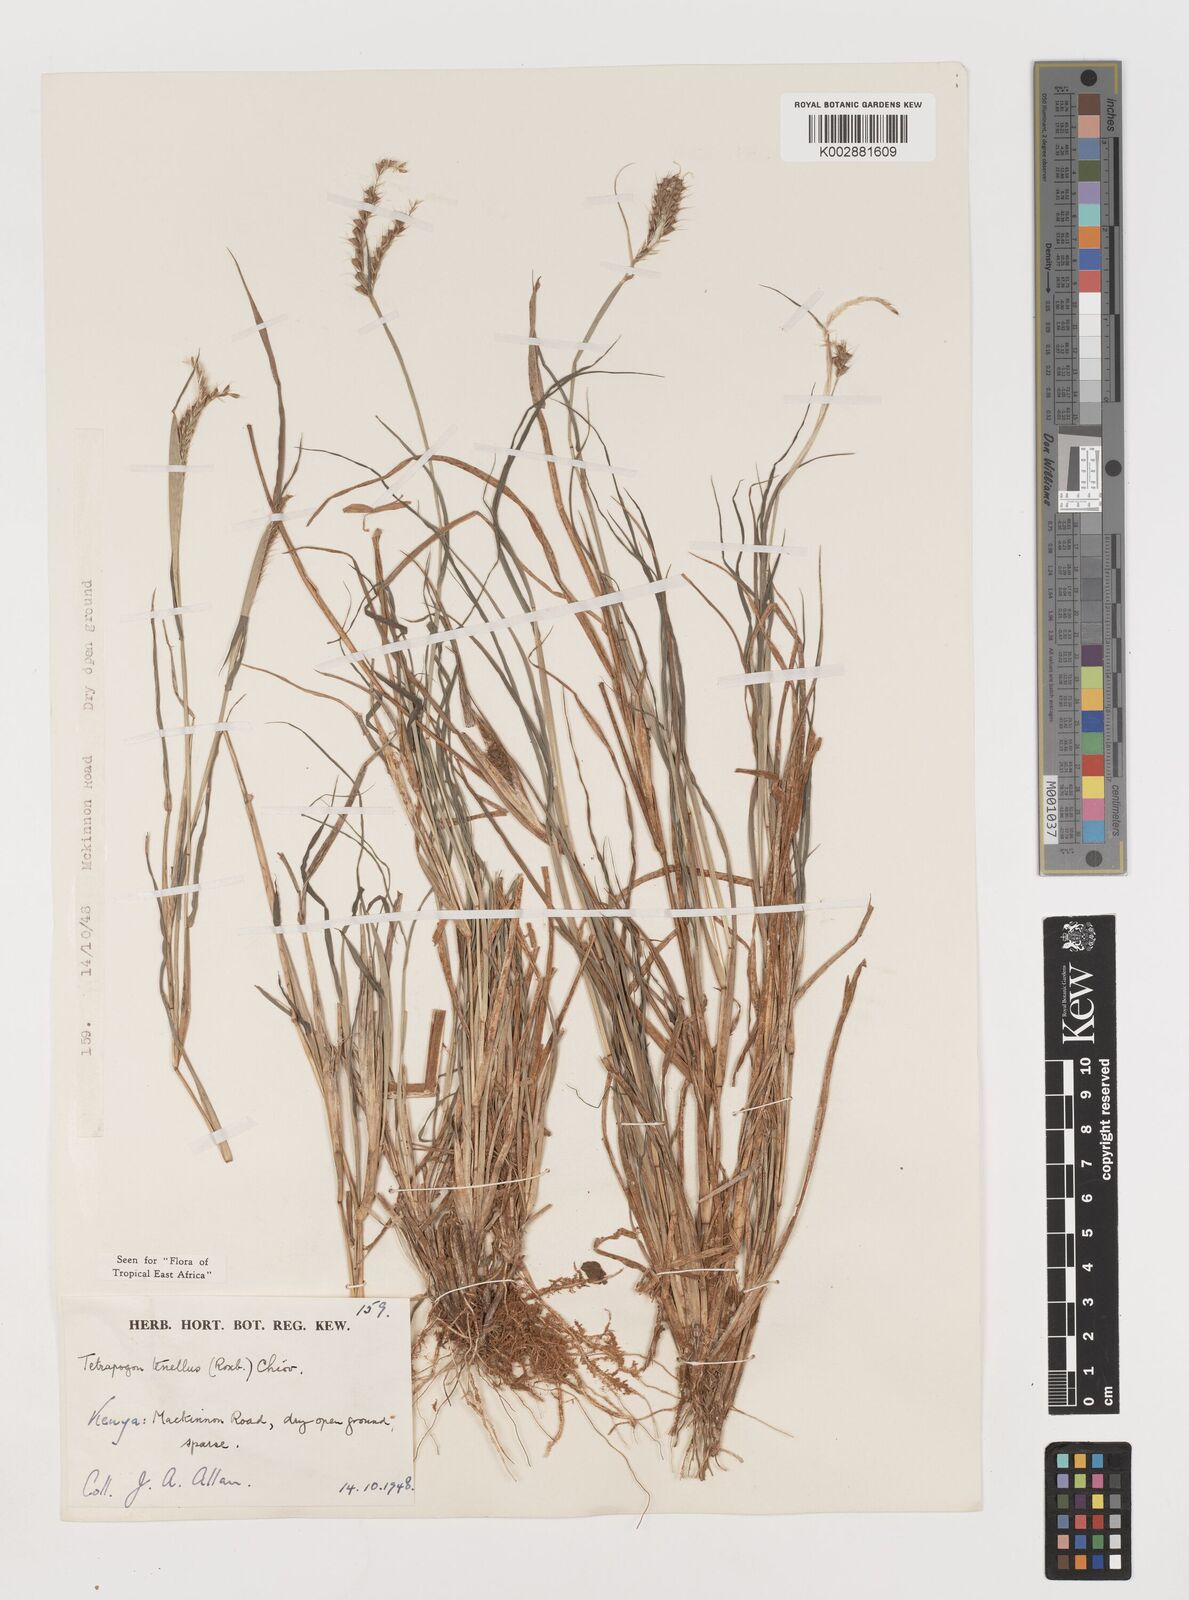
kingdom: Plantae
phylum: Tracheophyta
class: Liliopsida
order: Poales
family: Poaceae
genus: Tetrapogon
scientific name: Tetrapogon tenellus
